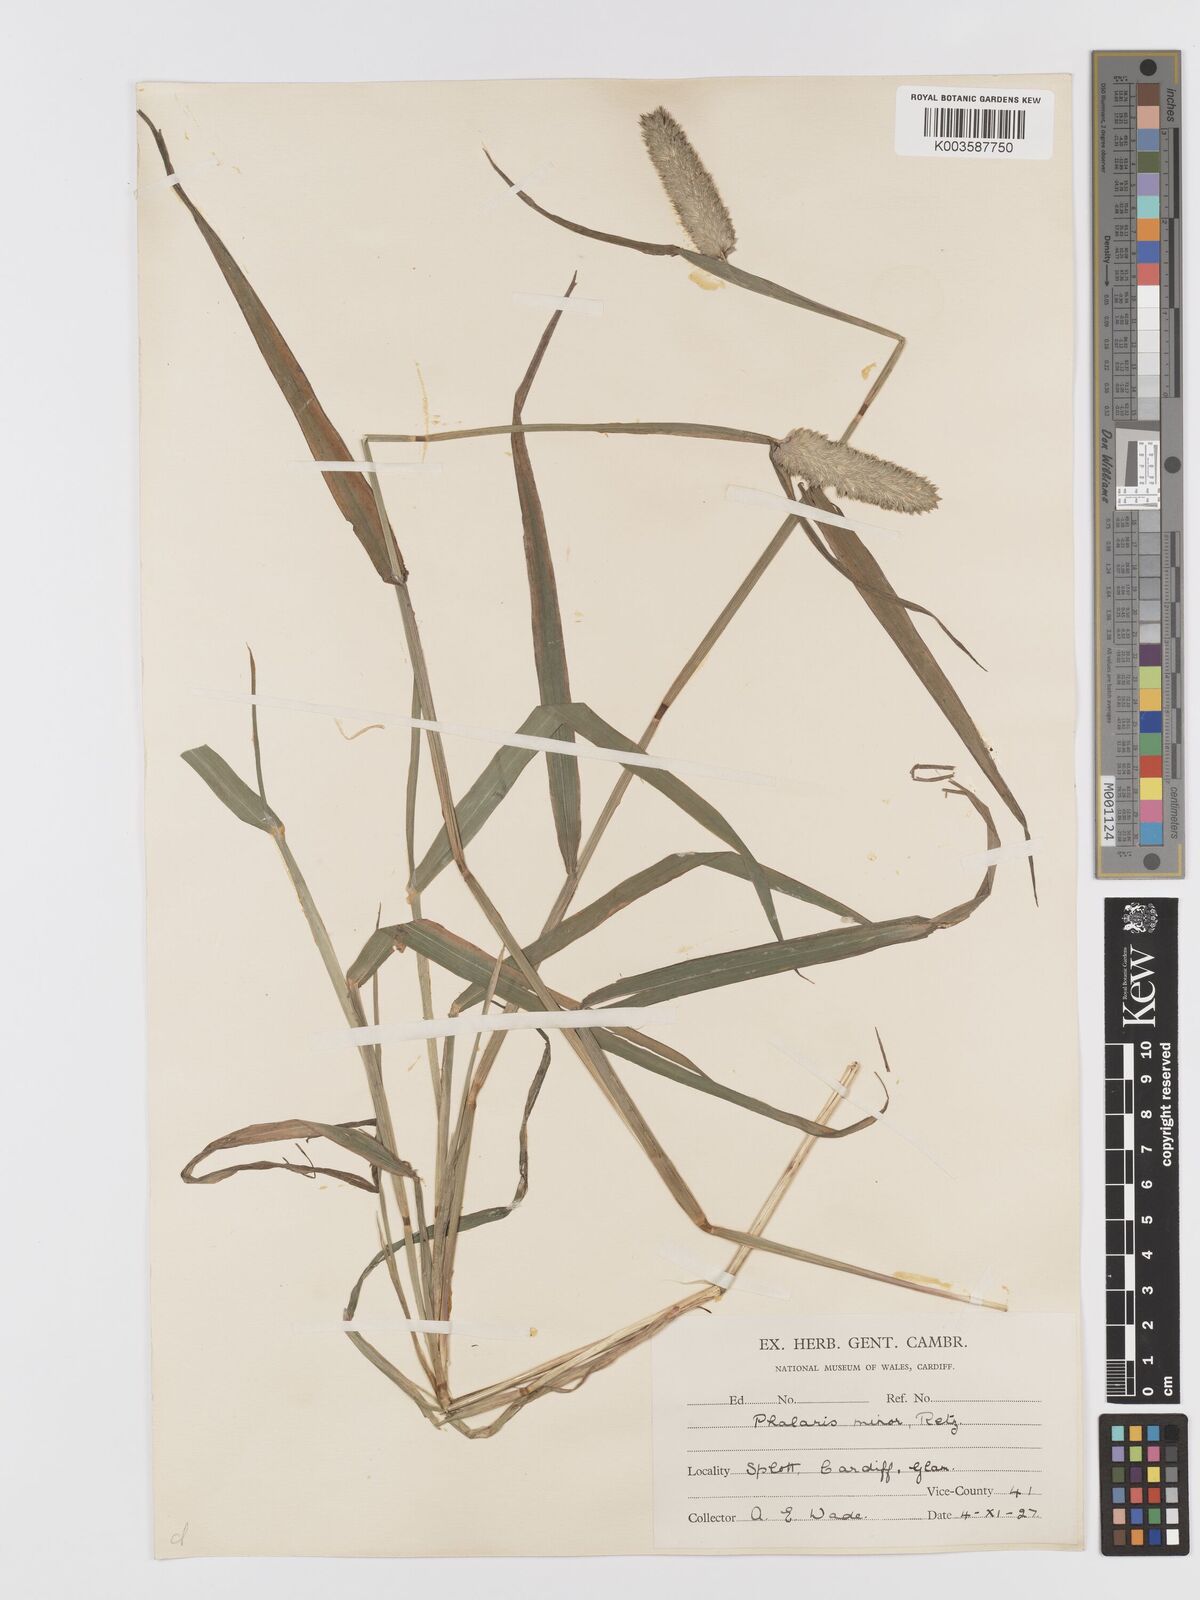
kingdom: Plantae
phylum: Tracheophyta
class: Liliopsida
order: Poales
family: Poaceae
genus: Phalaris
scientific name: Phalaris minor
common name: Littleseed canarygrass
